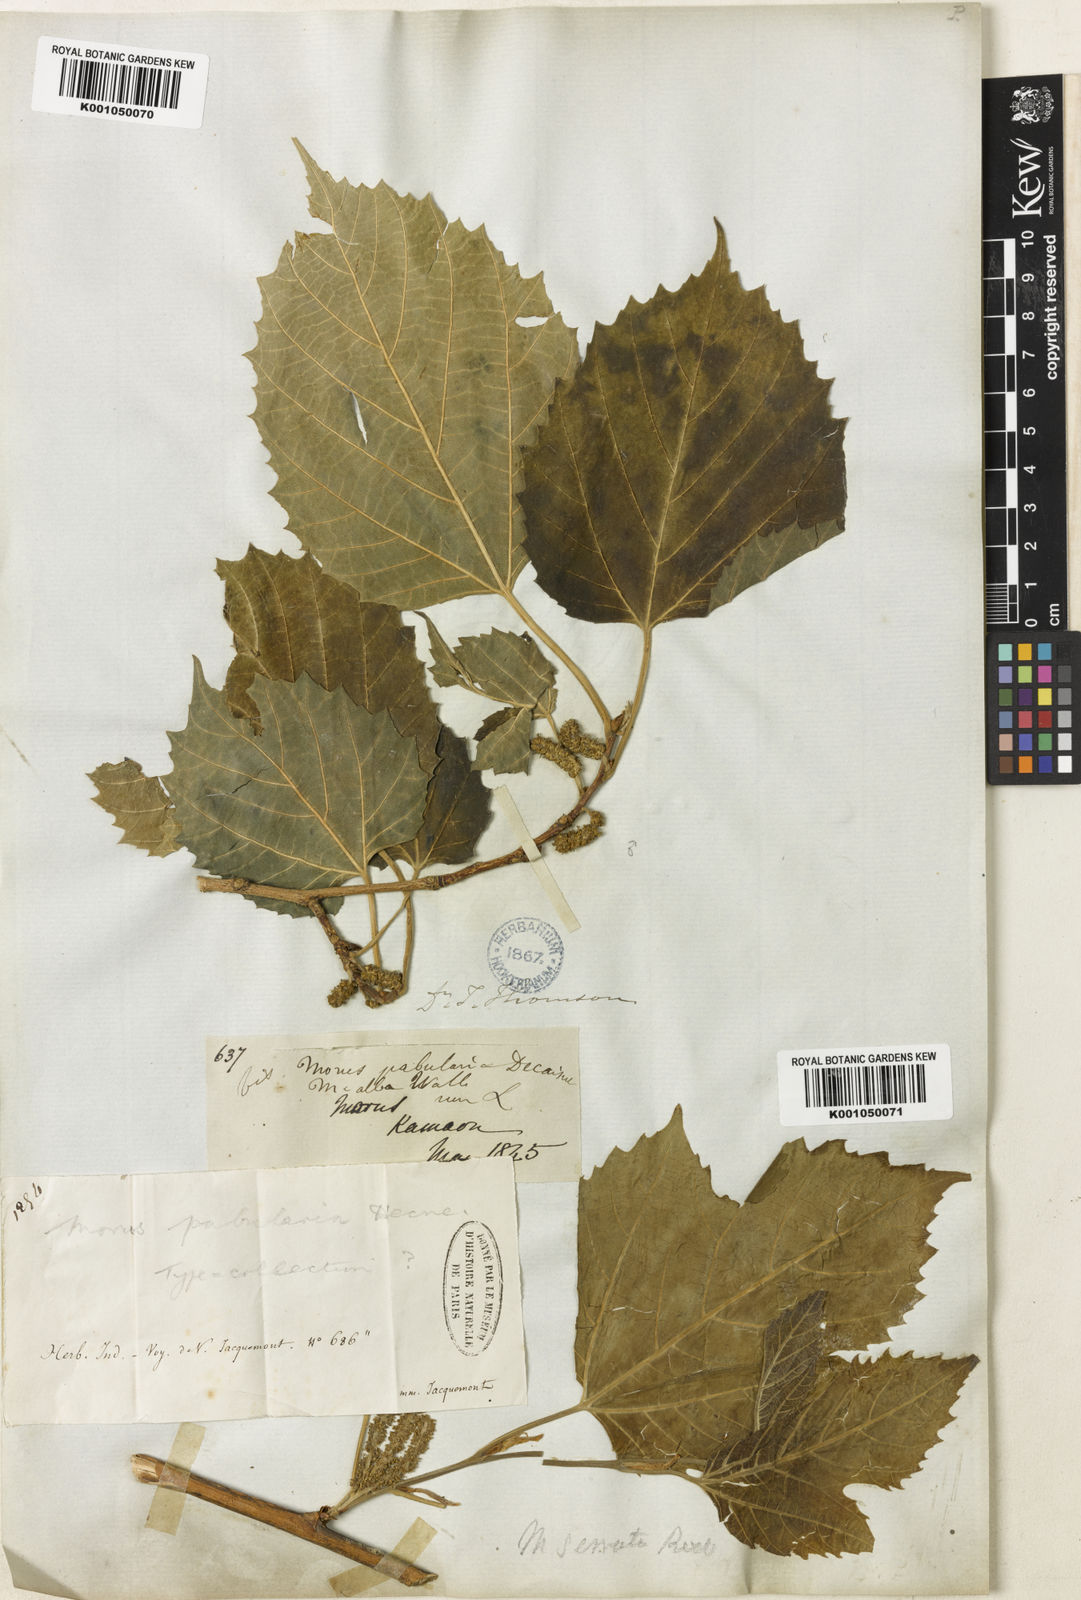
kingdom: Plantae
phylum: Tracheophyta
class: Magnoliopsida
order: Rosales
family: Moraceae
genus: Morus
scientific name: Morus serrata
